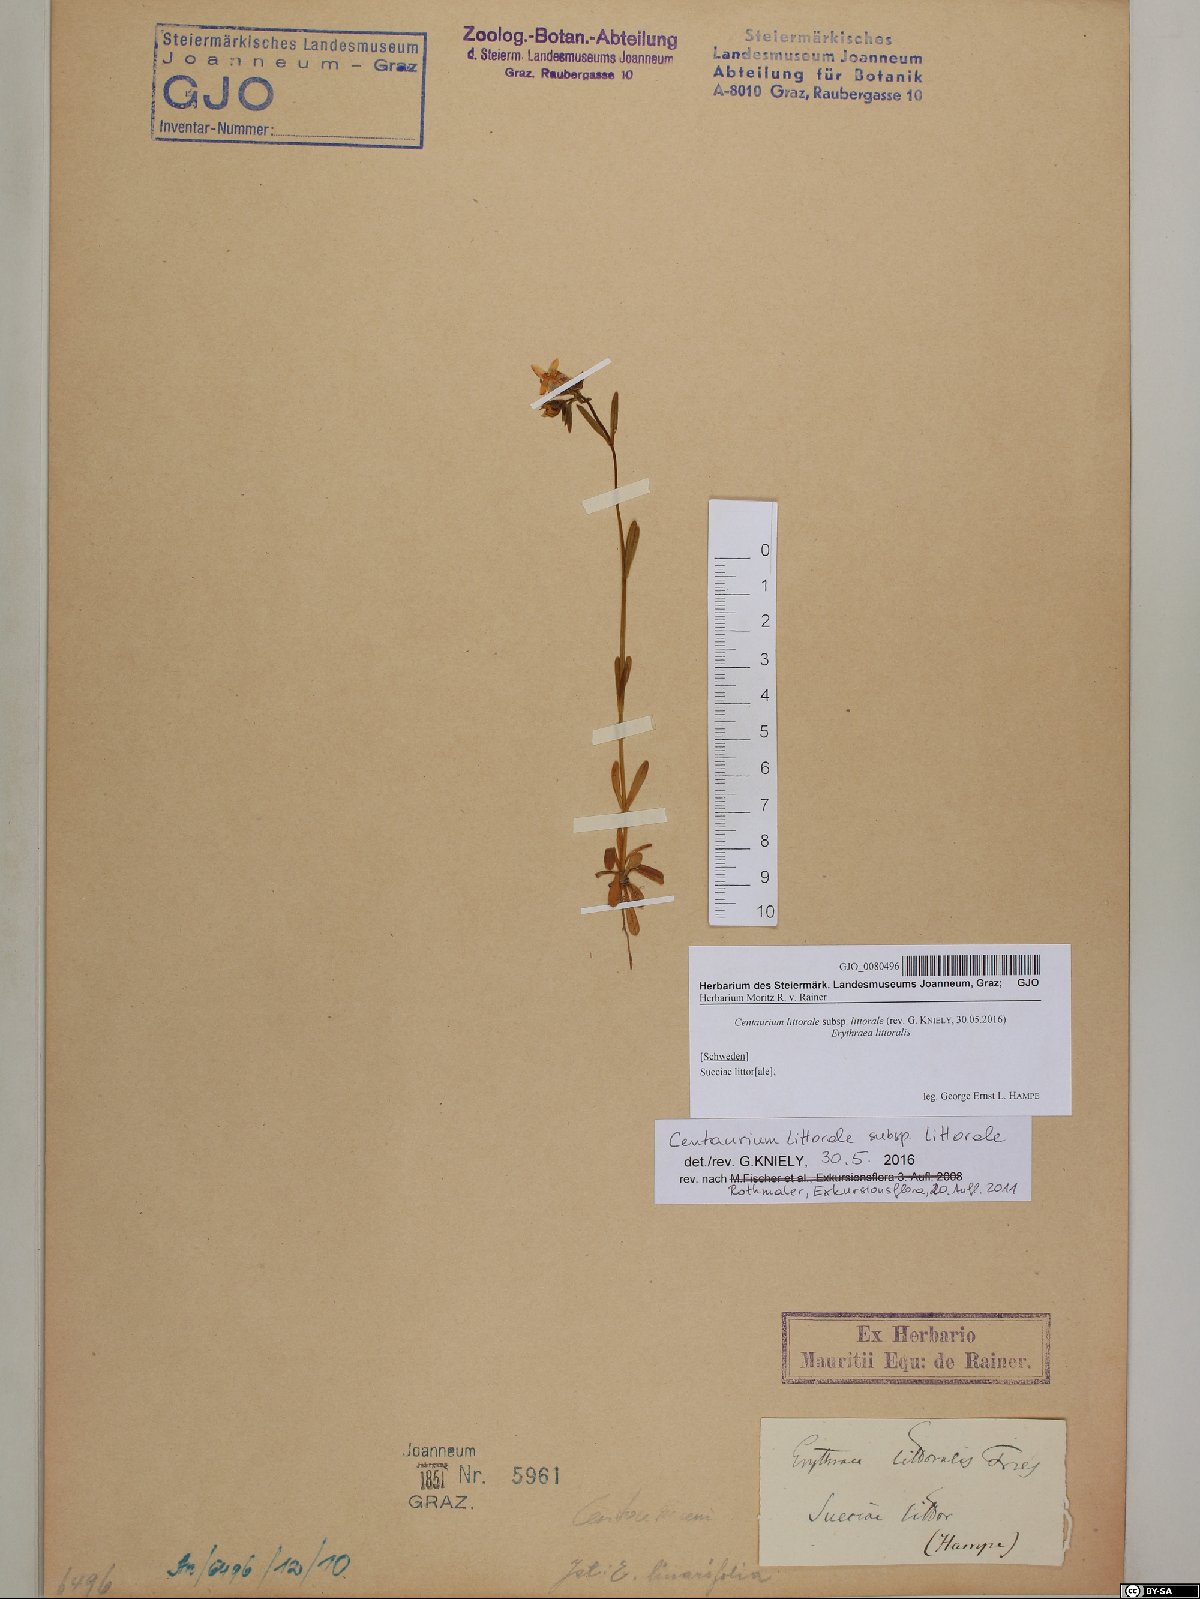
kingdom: Plantae
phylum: Tracheophyta
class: Magnoliopsida
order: Gentianales
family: Gentianaceae
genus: Centaurium
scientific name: Centaurium littorale
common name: Seaside centaury
